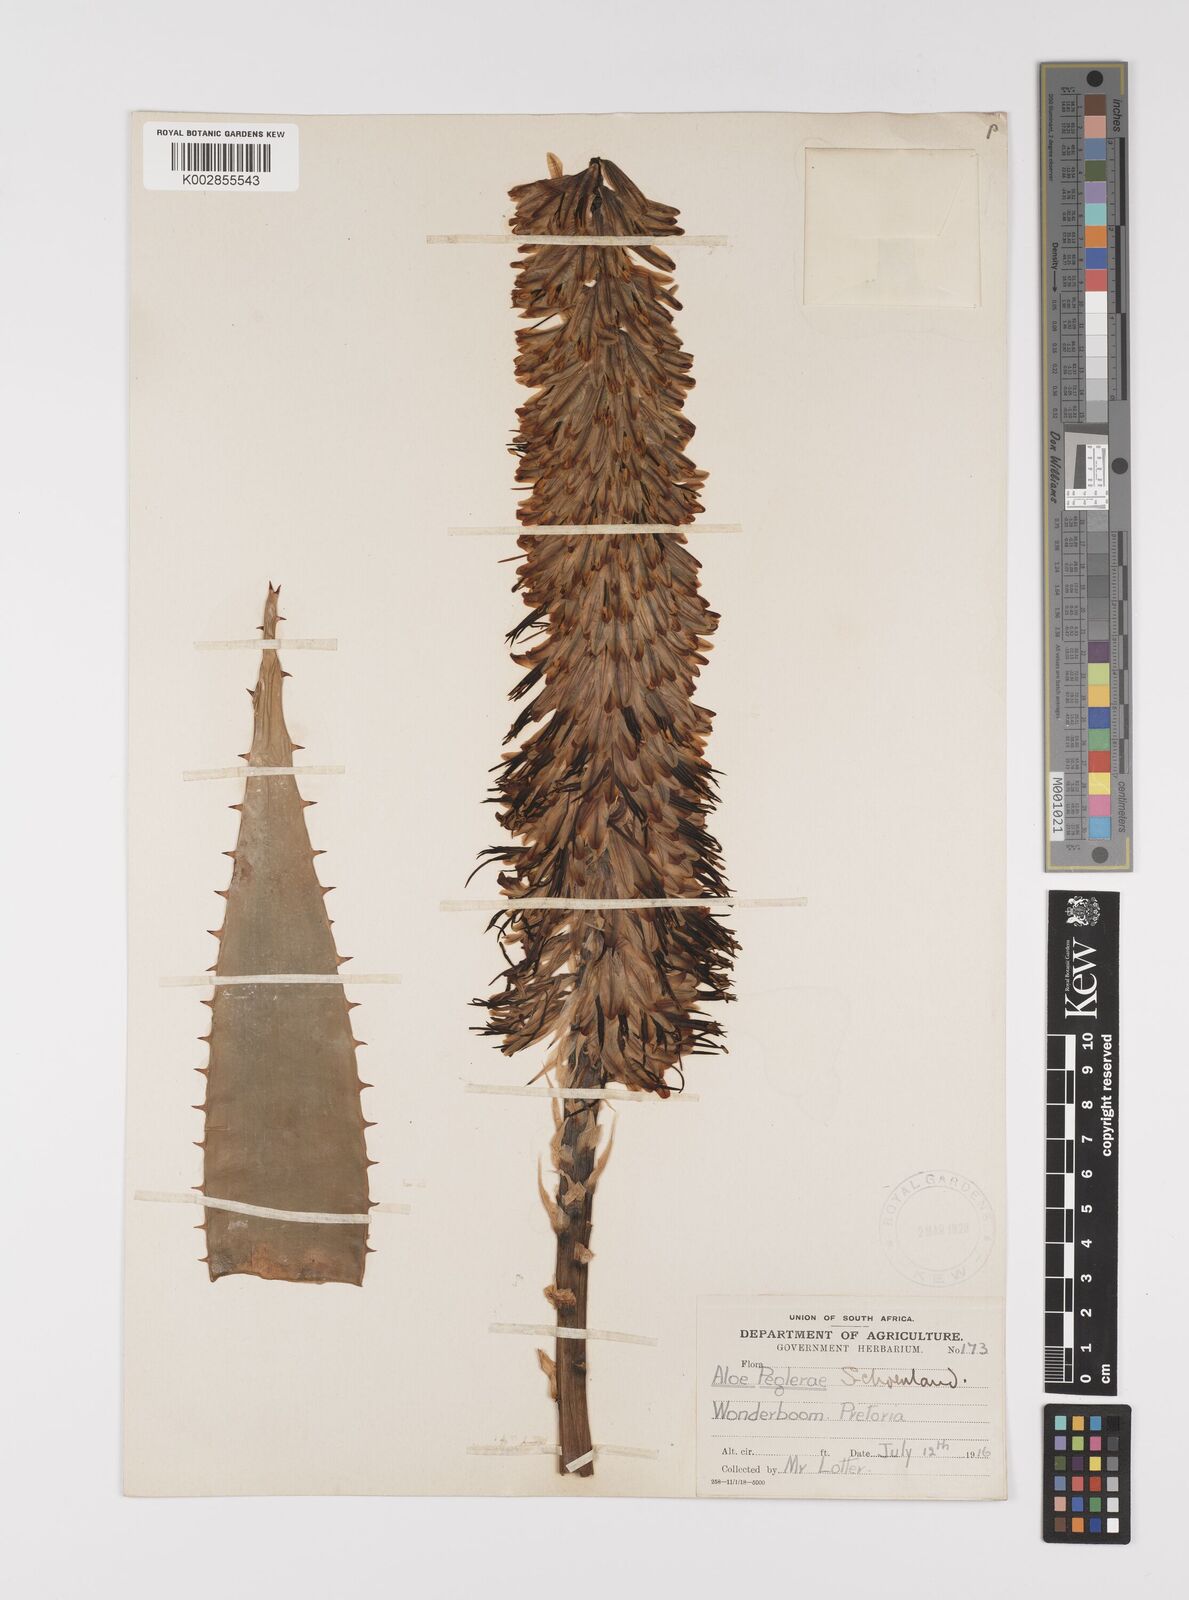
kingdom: Plantae
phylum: Tracheophyta
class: Liliopsida
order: Asparagales
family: Asphodelaceae
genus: Aloe
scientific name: Aloe peglerae
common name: Red-hot poker
